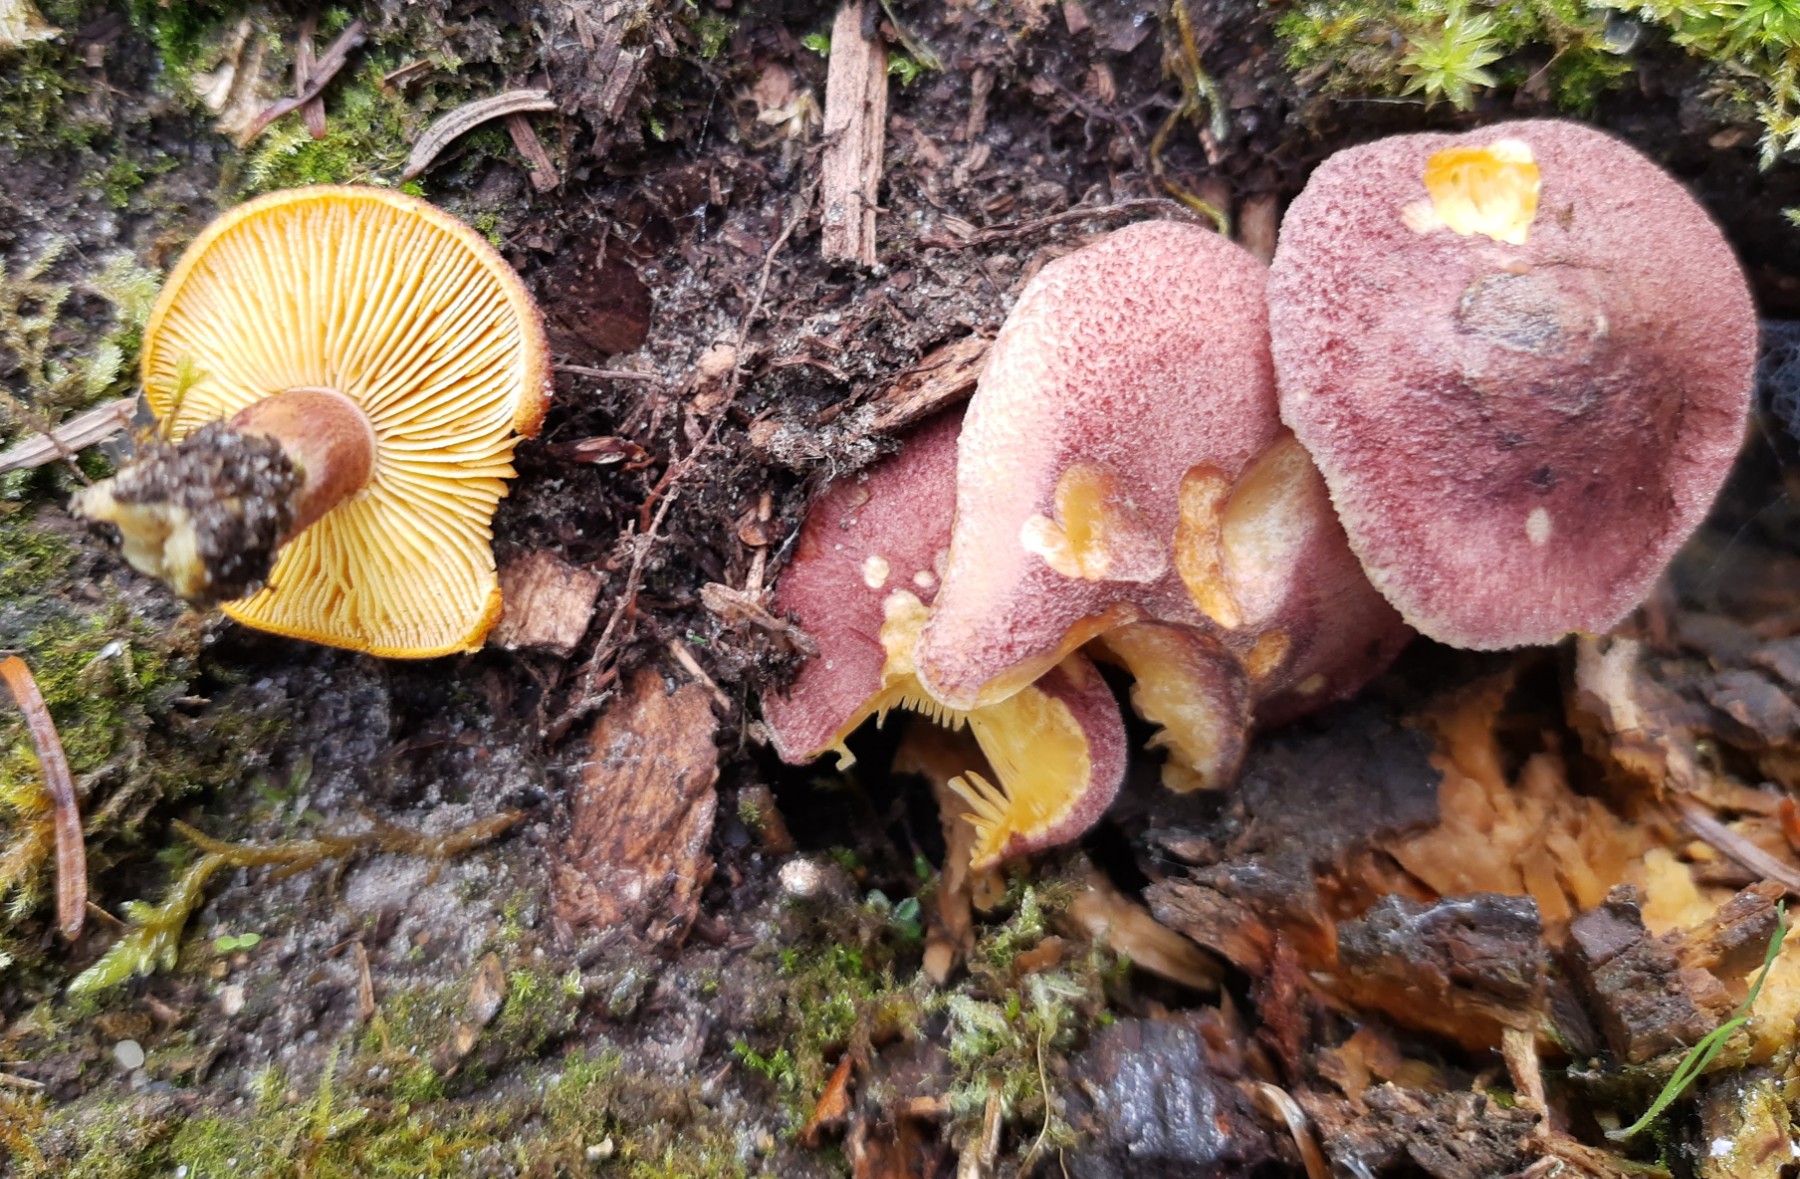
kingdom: Fungi
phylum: Basidiomycota
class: Agaricomycetes
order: Agaricales
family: Tricholomataceae
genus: Tricholomopsis
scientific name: Tricholomopsis rutilans
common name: purpur-væbnerhat
